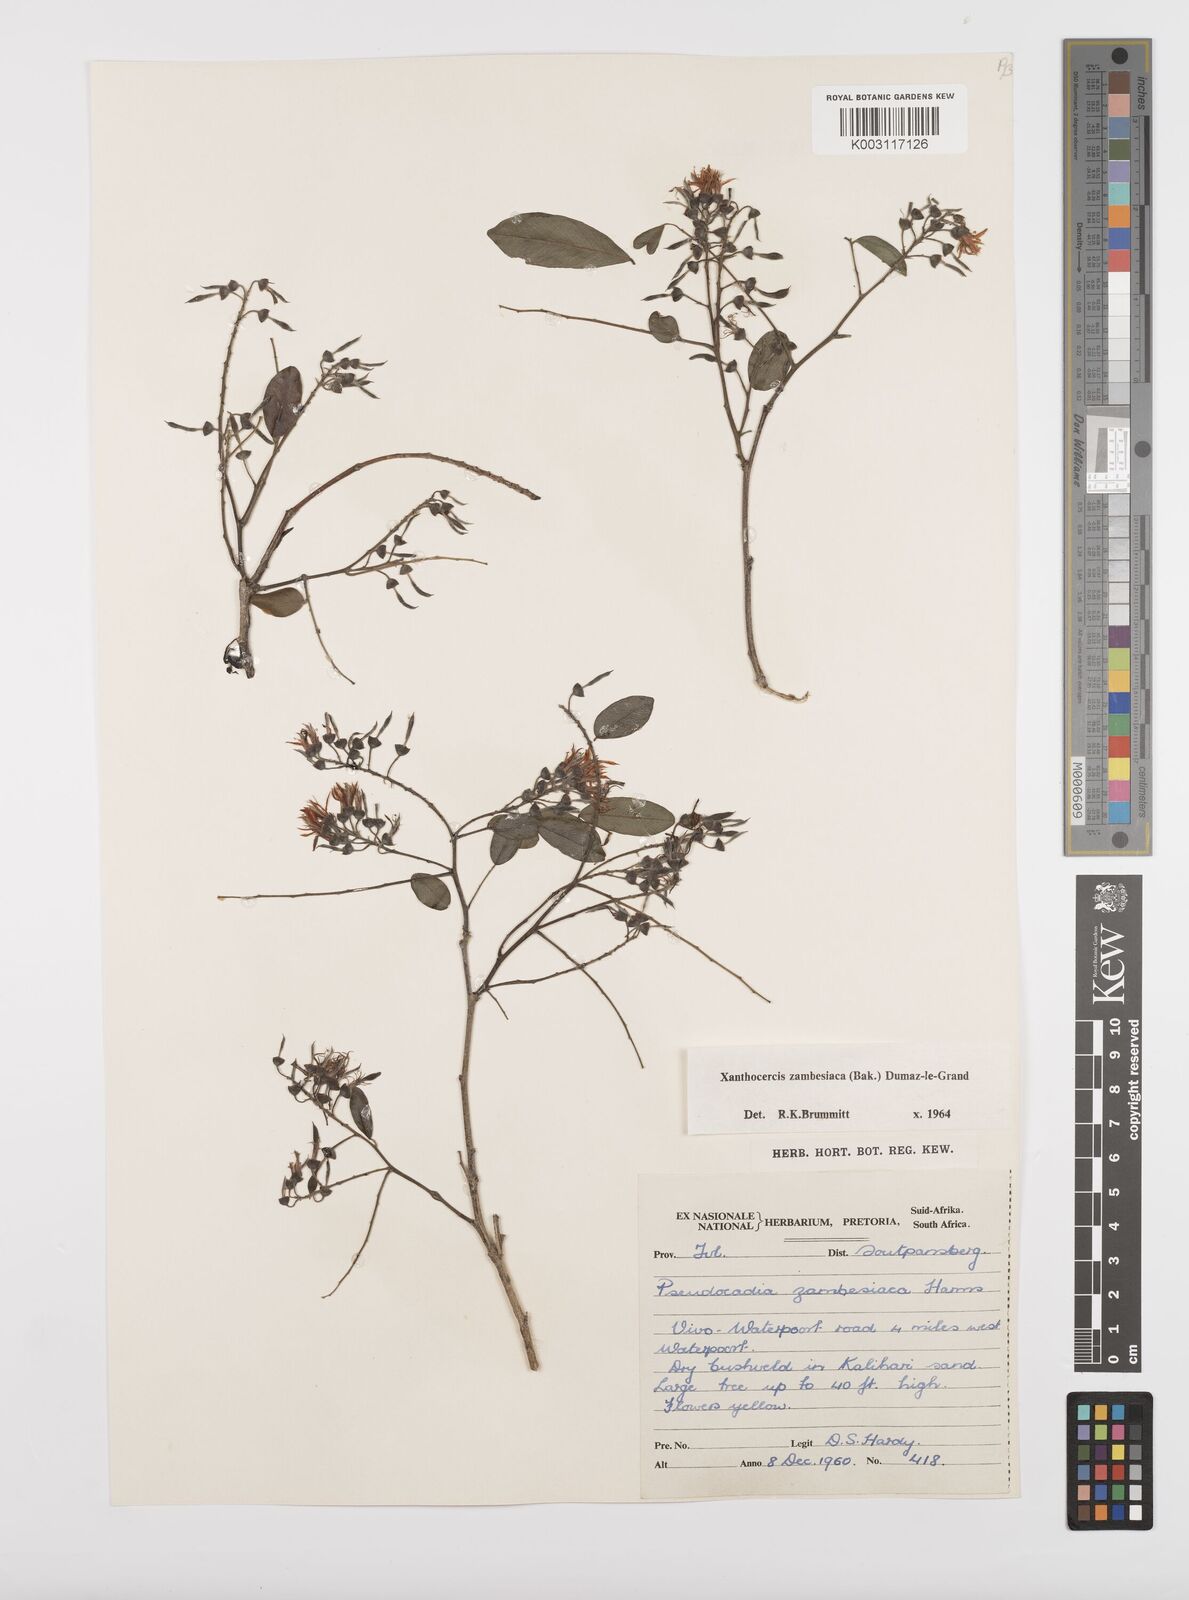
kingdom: Plantae
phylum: Tracheophyta
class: Magnoliopsida
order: Fabales
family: Fabaceae
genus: Xanthocercis
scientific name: Xanthocercis zambesiaca
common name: Nyala-tree
